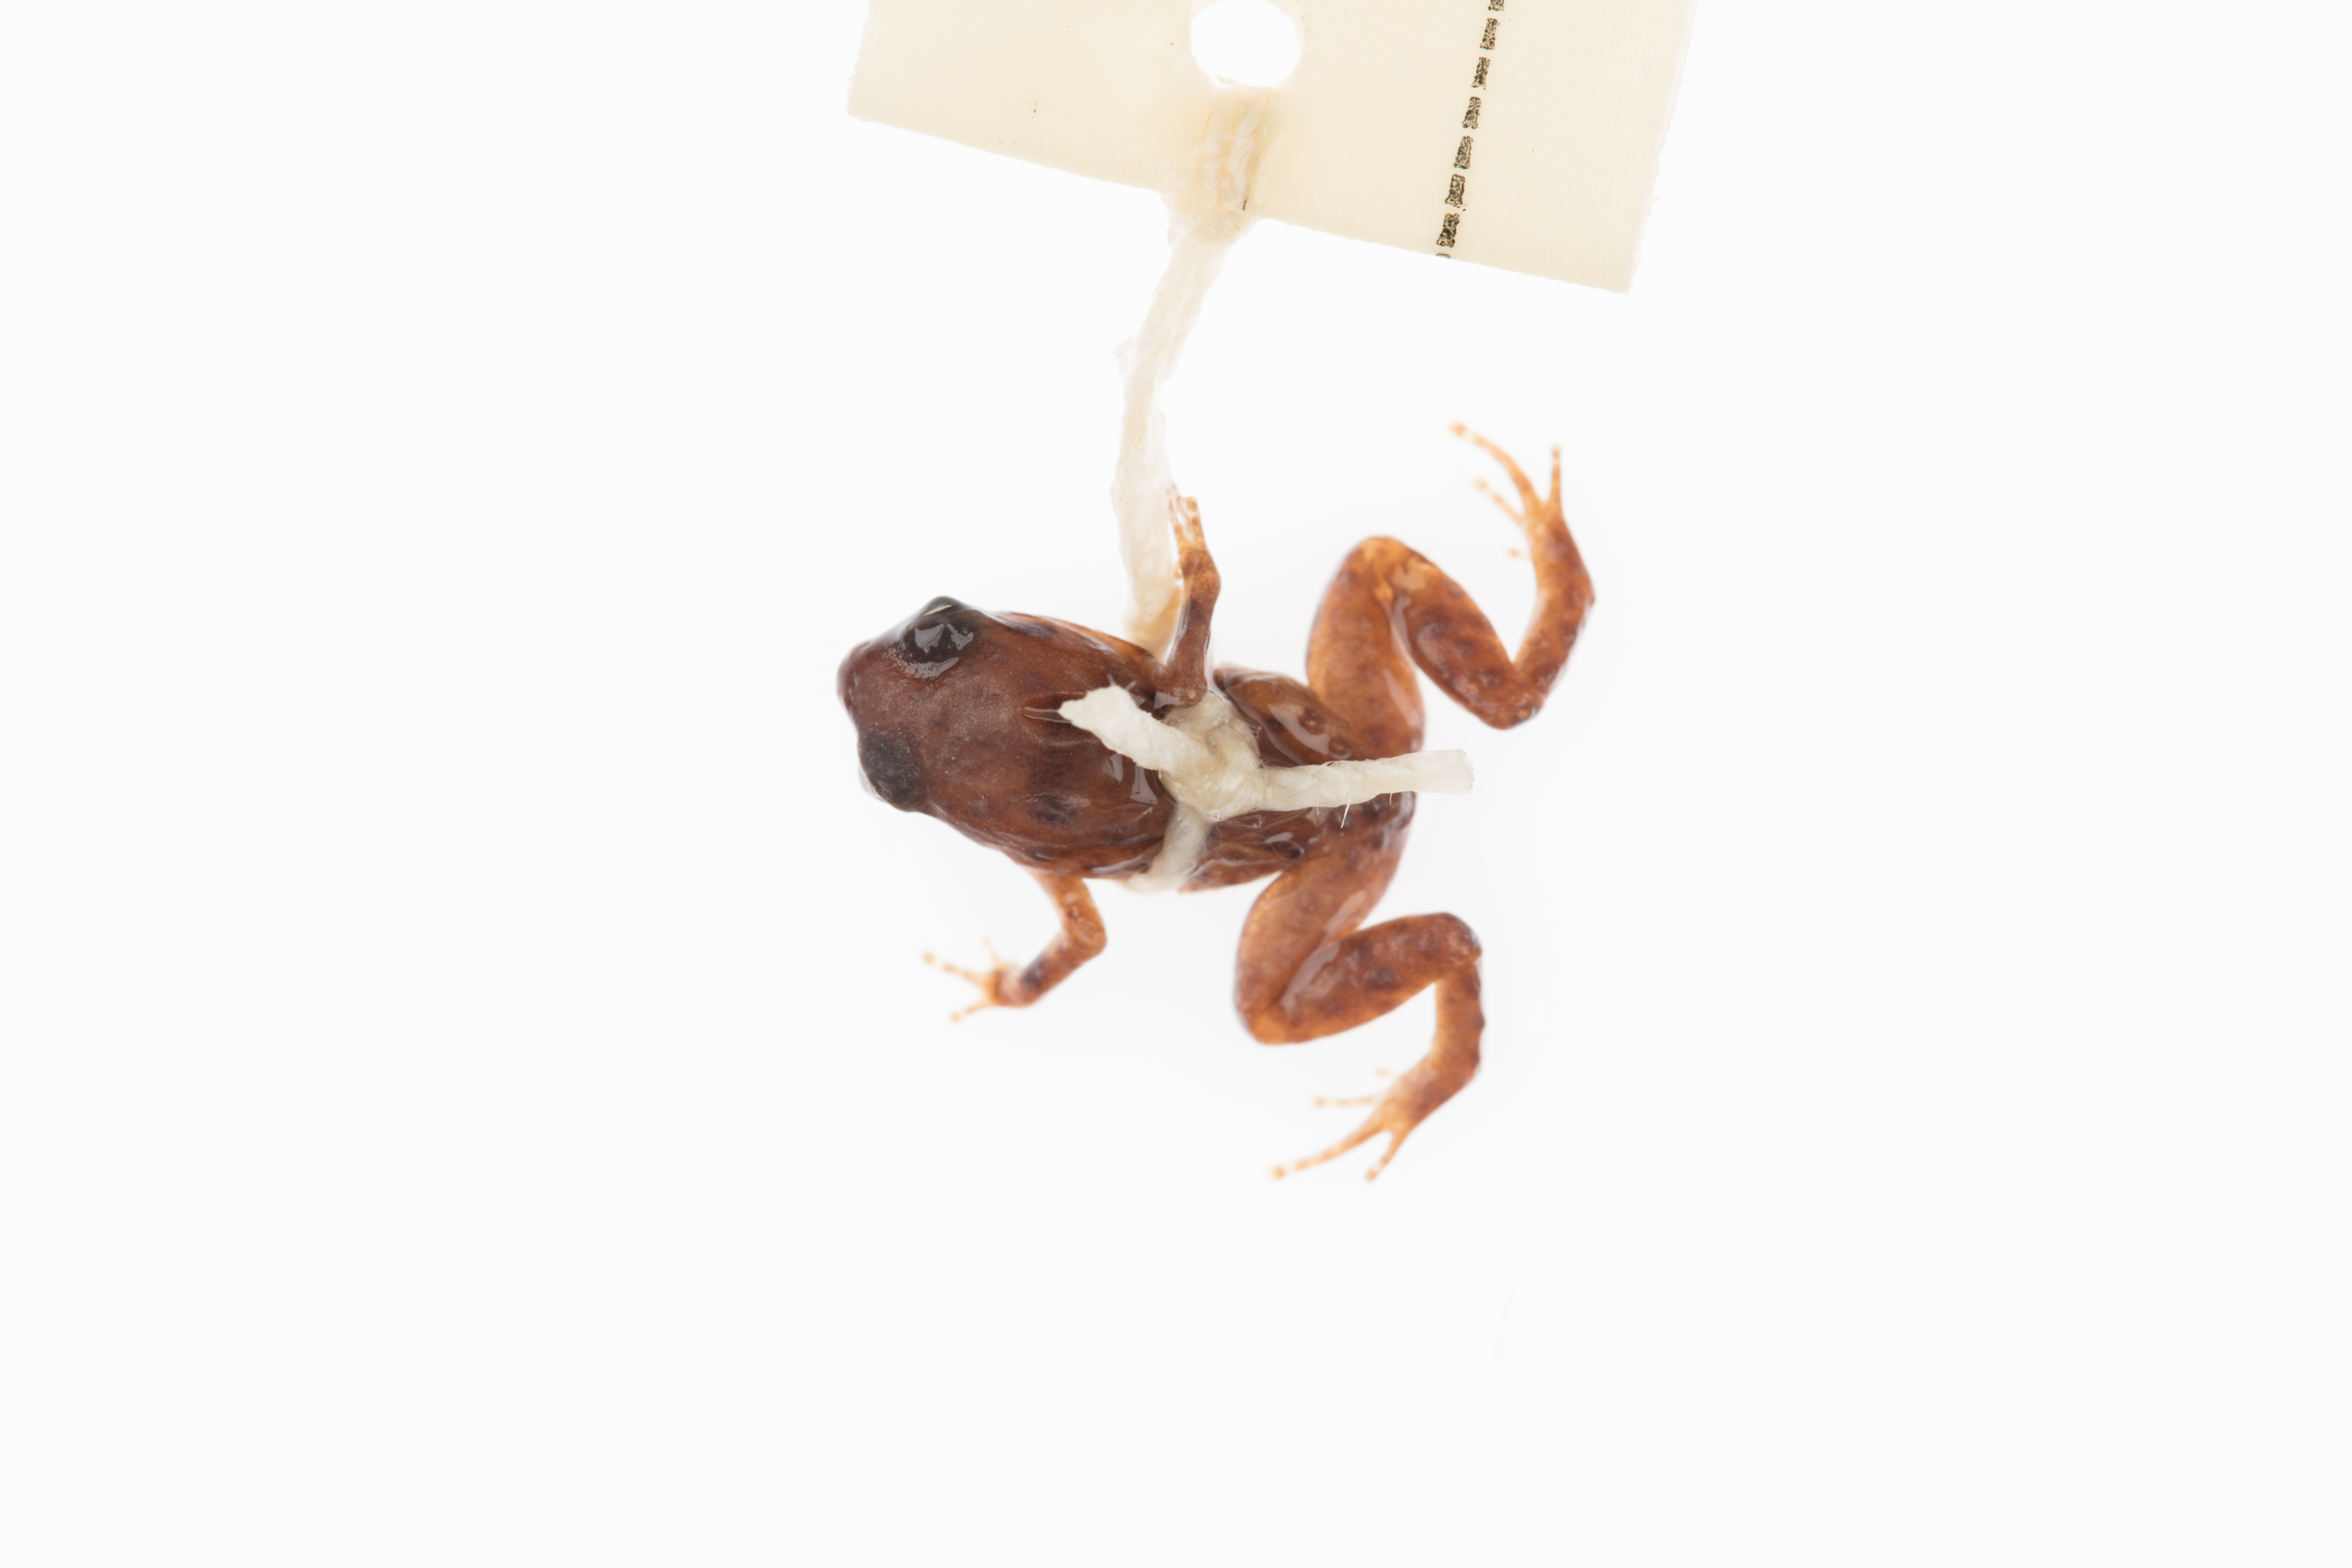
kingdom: Animalia
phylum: Chordata
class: Amphibia
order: Anura
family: Microhylidae
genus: Cophixalus
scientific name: Cophixalus hosmeri
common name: Clicking rainforest frog
